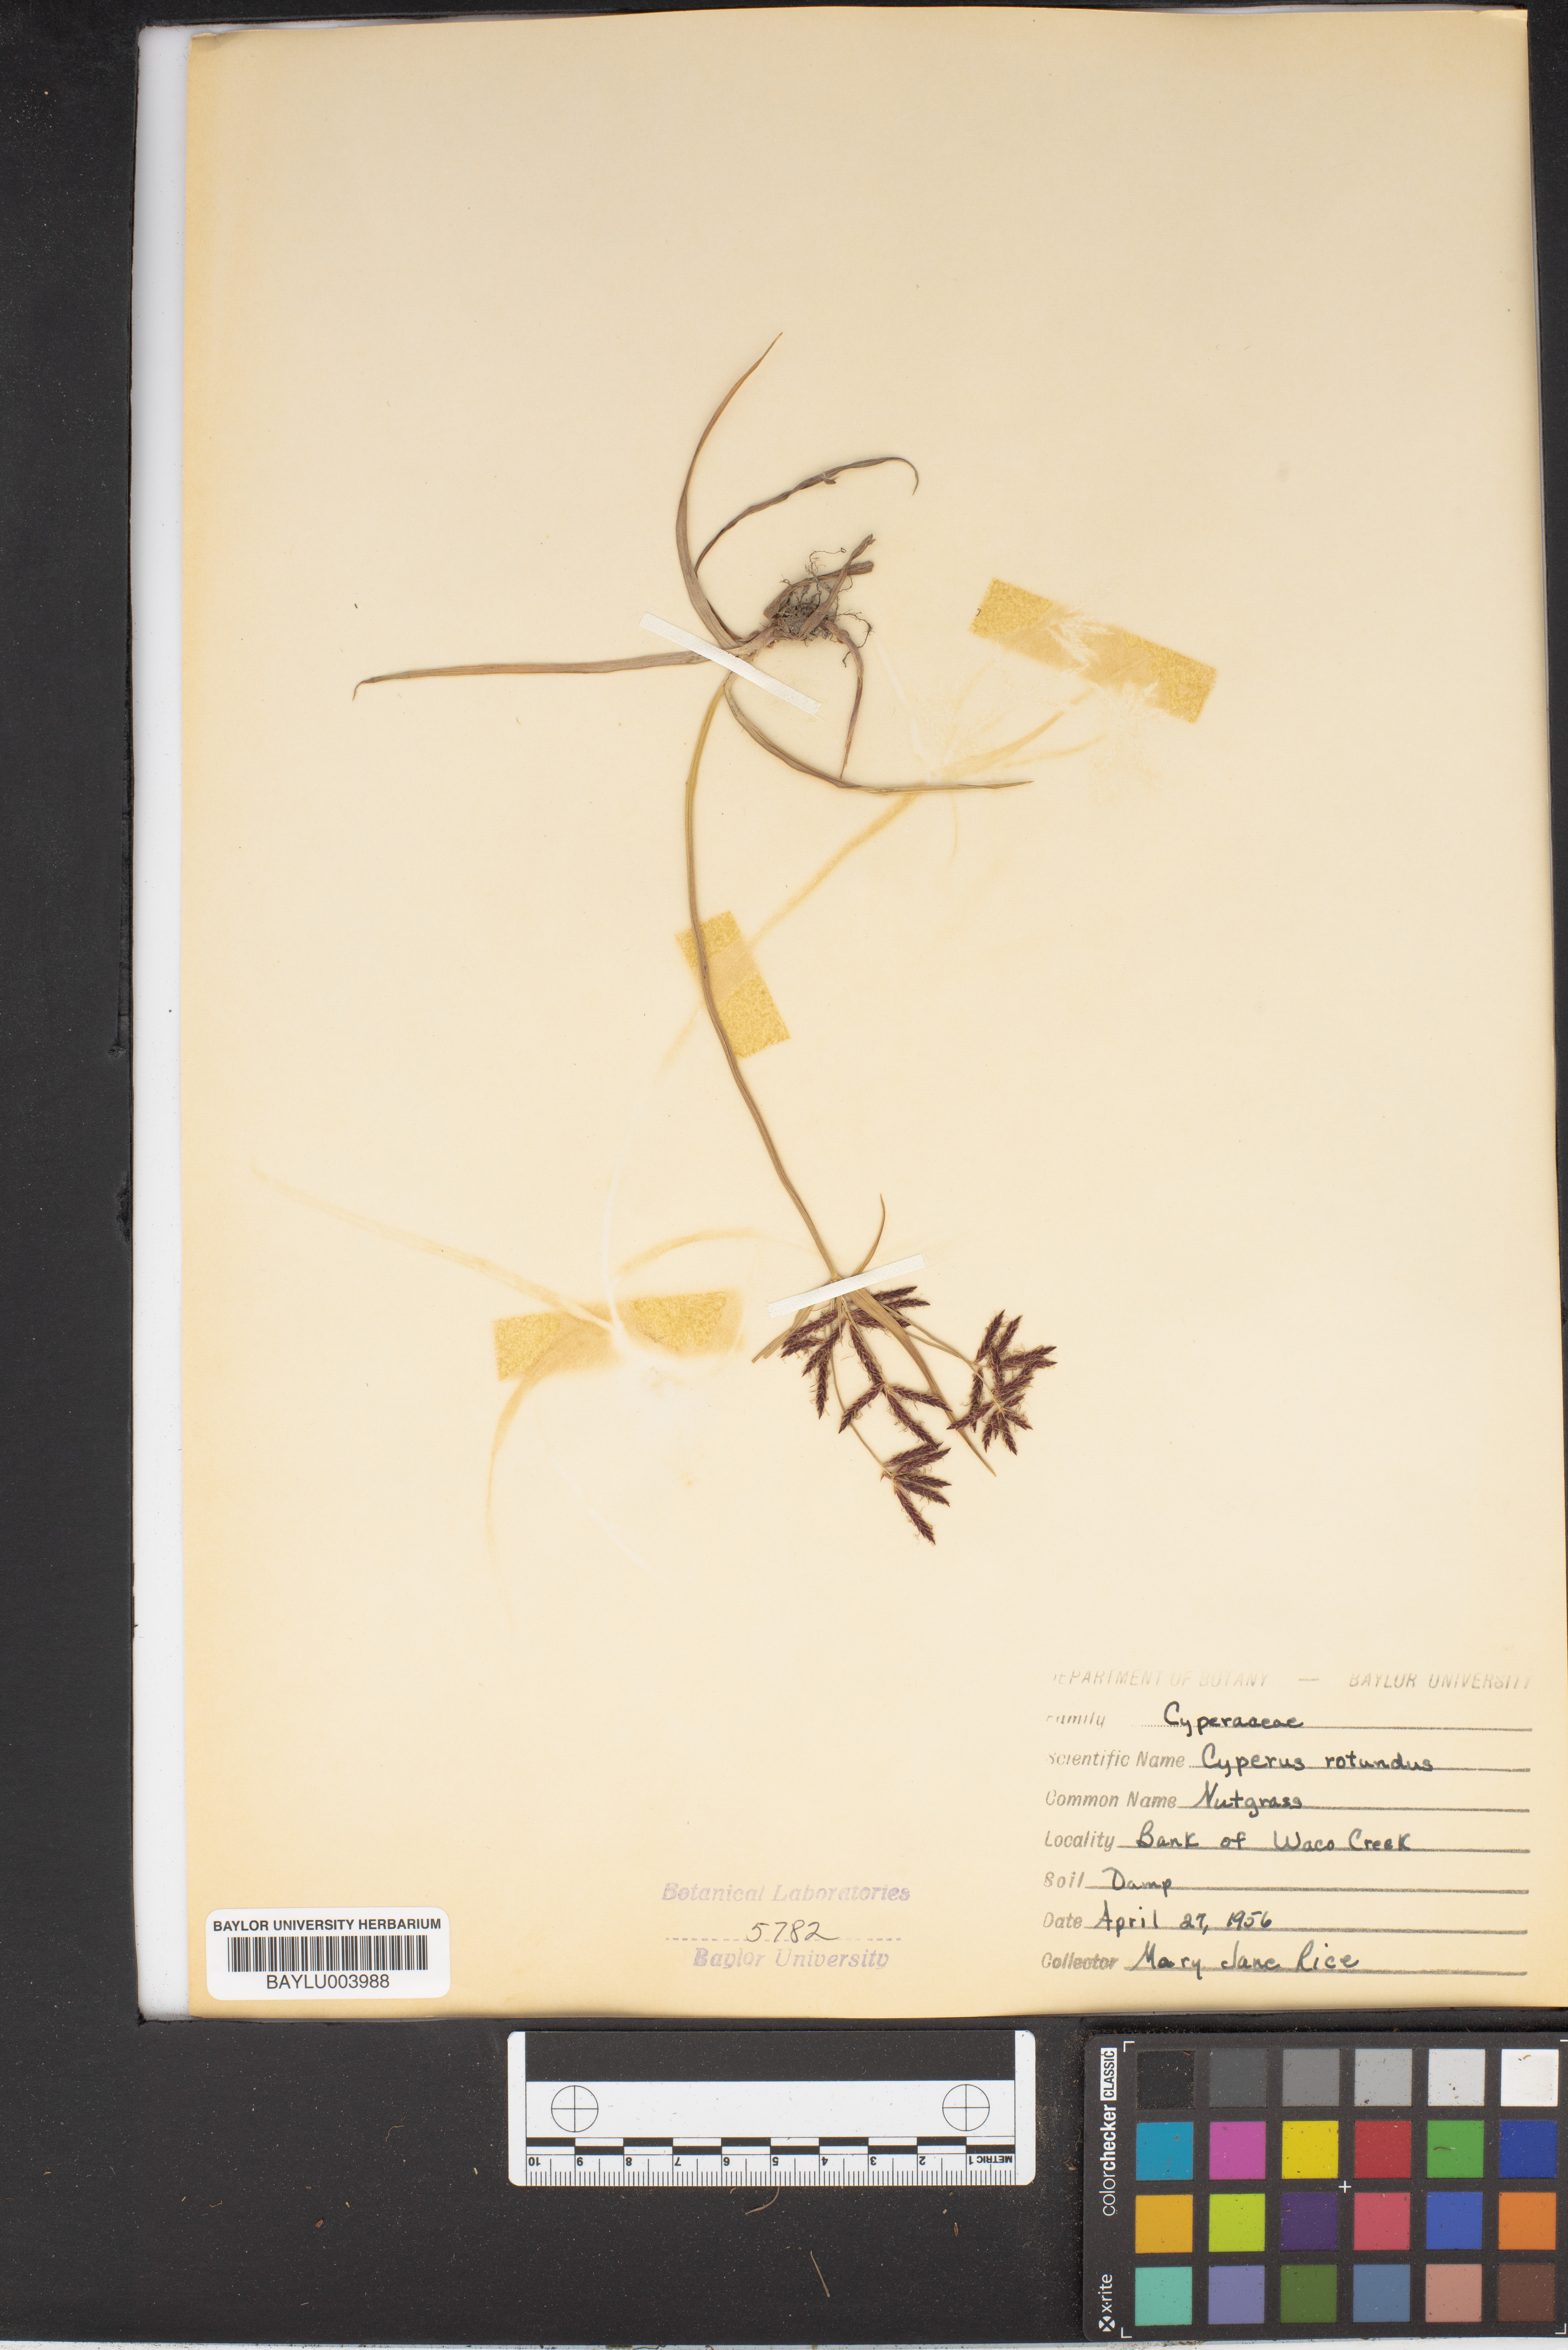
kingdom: Plantae
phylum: Tracheophyta
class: Liliopsida
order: Poales
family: Cyperaceae
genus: Cyperus
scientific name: Cyperus rotundus
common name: Nutgrass
